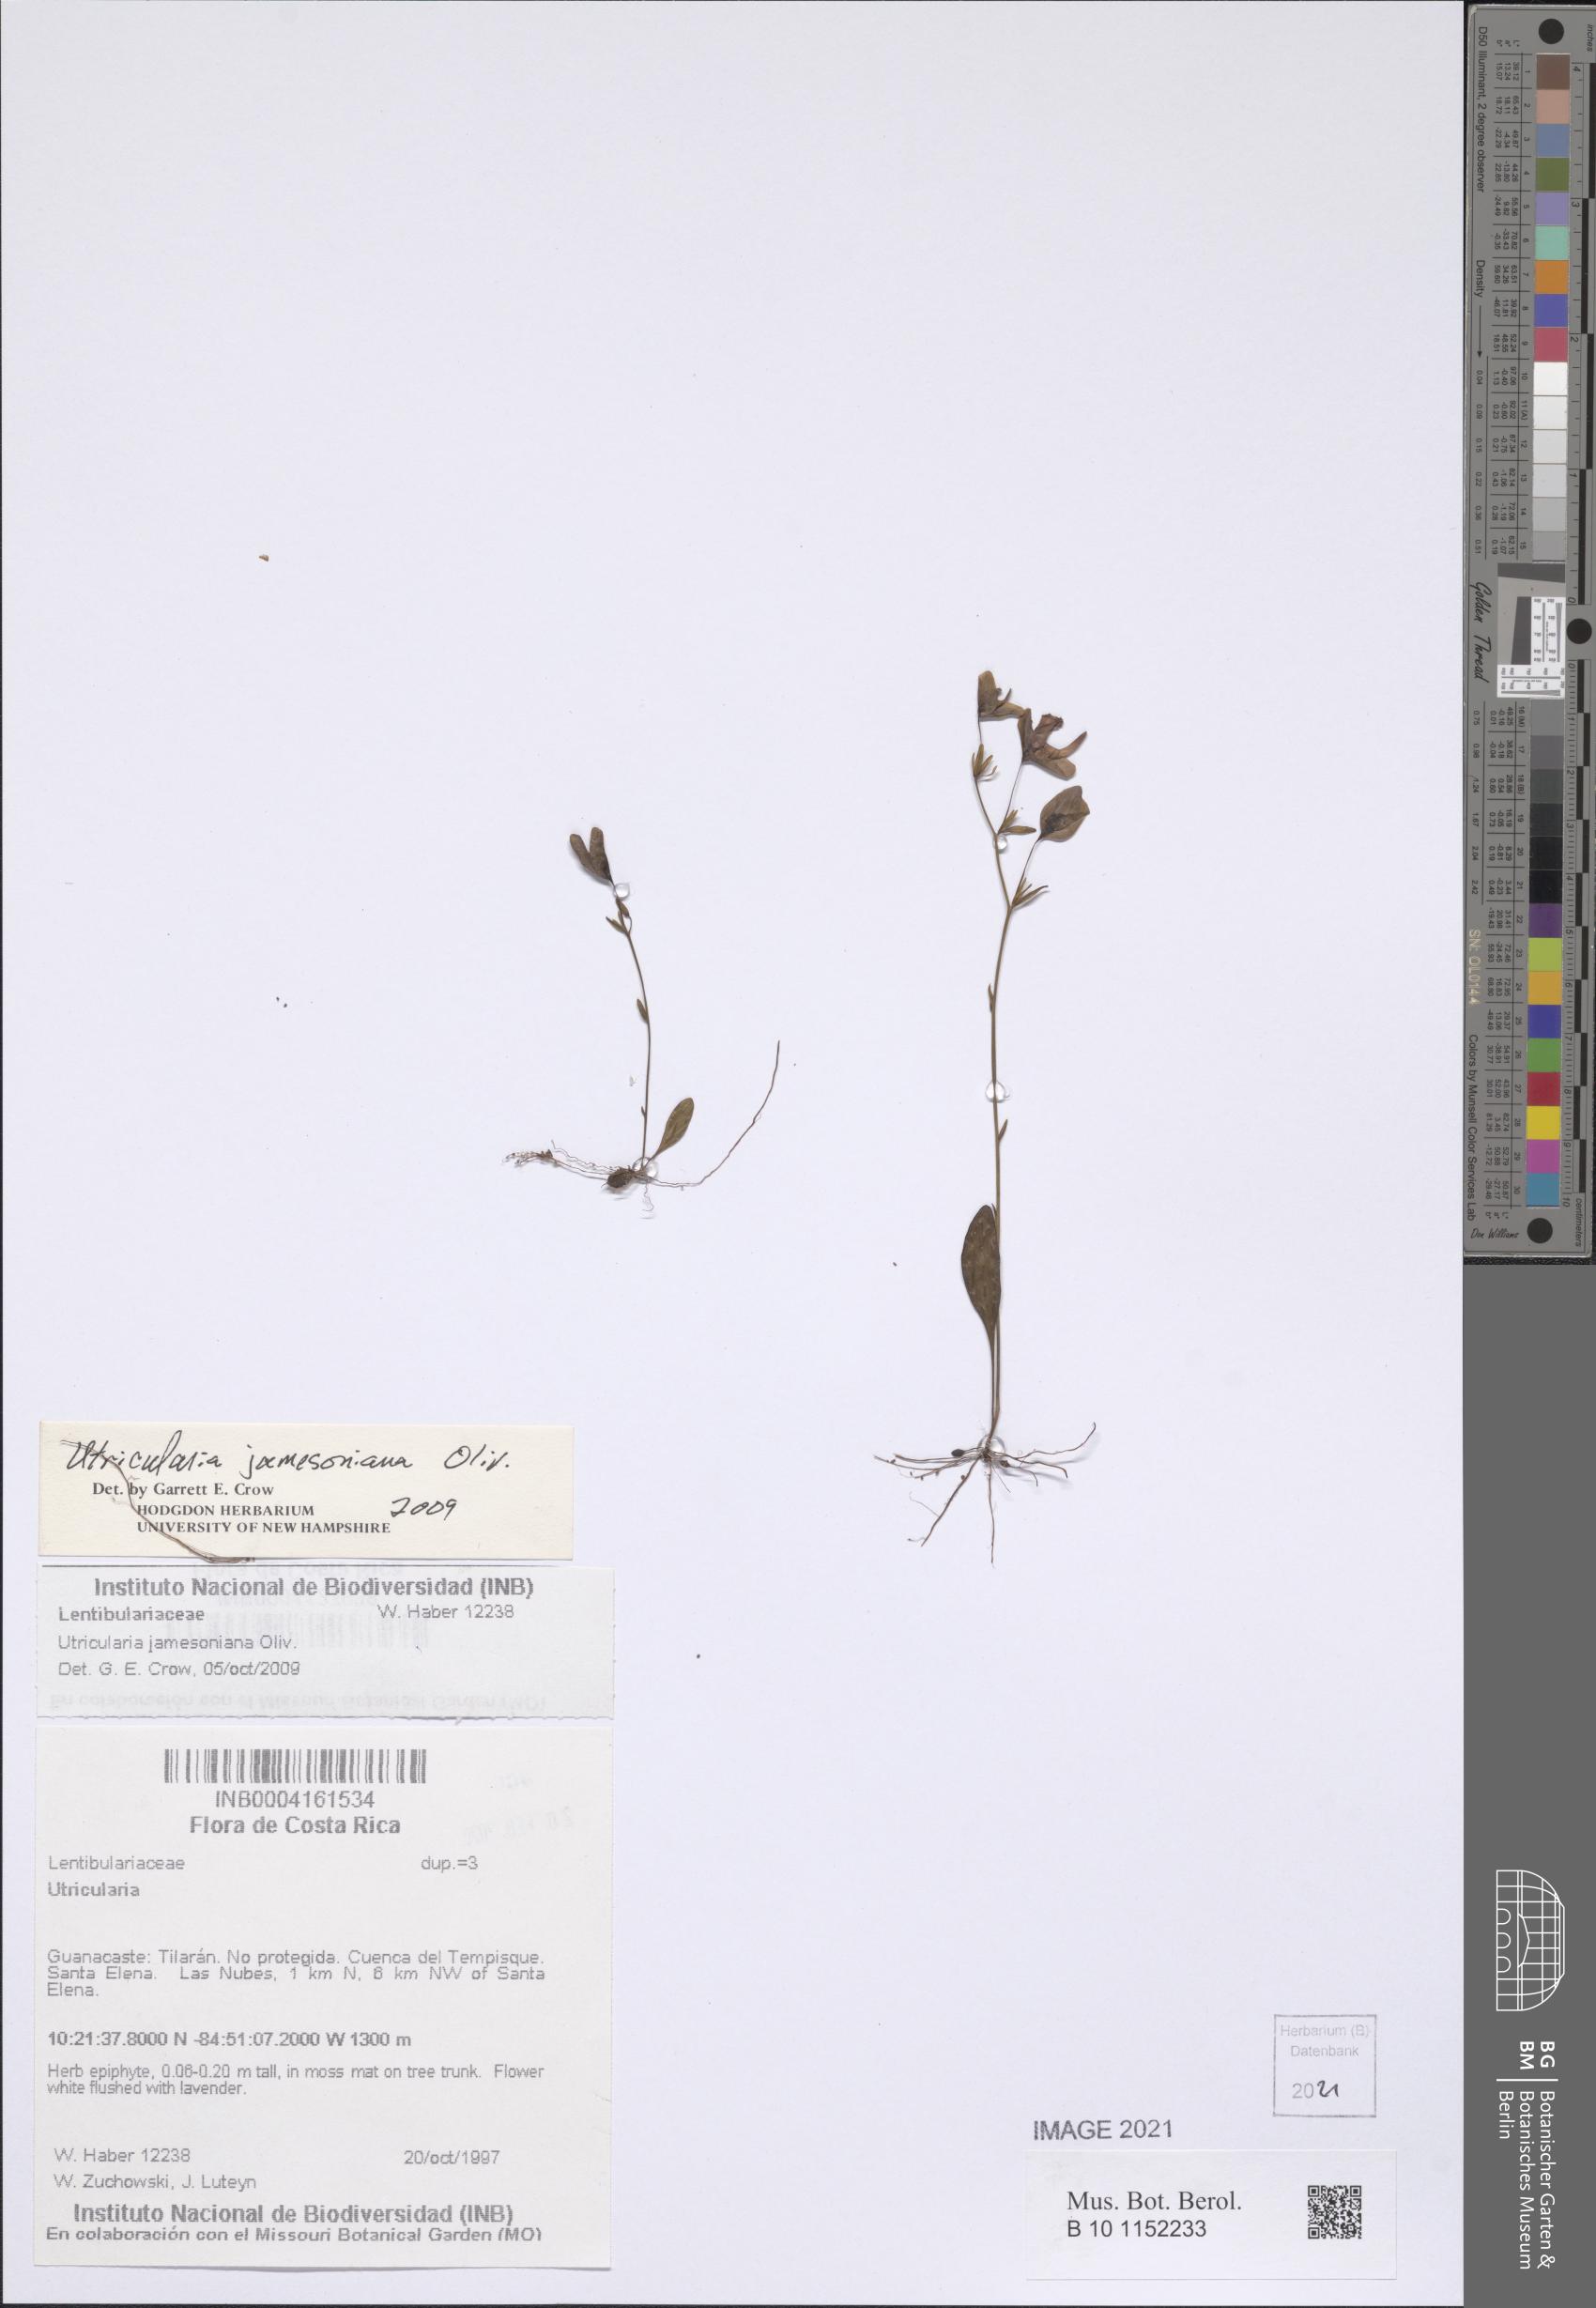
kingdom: Plantae
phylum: Tracheophyta
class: Magnoliopsida
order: Lamiales
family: Lentibulariaceae
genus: Utricularia
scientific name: Utricularia jamesoniana
